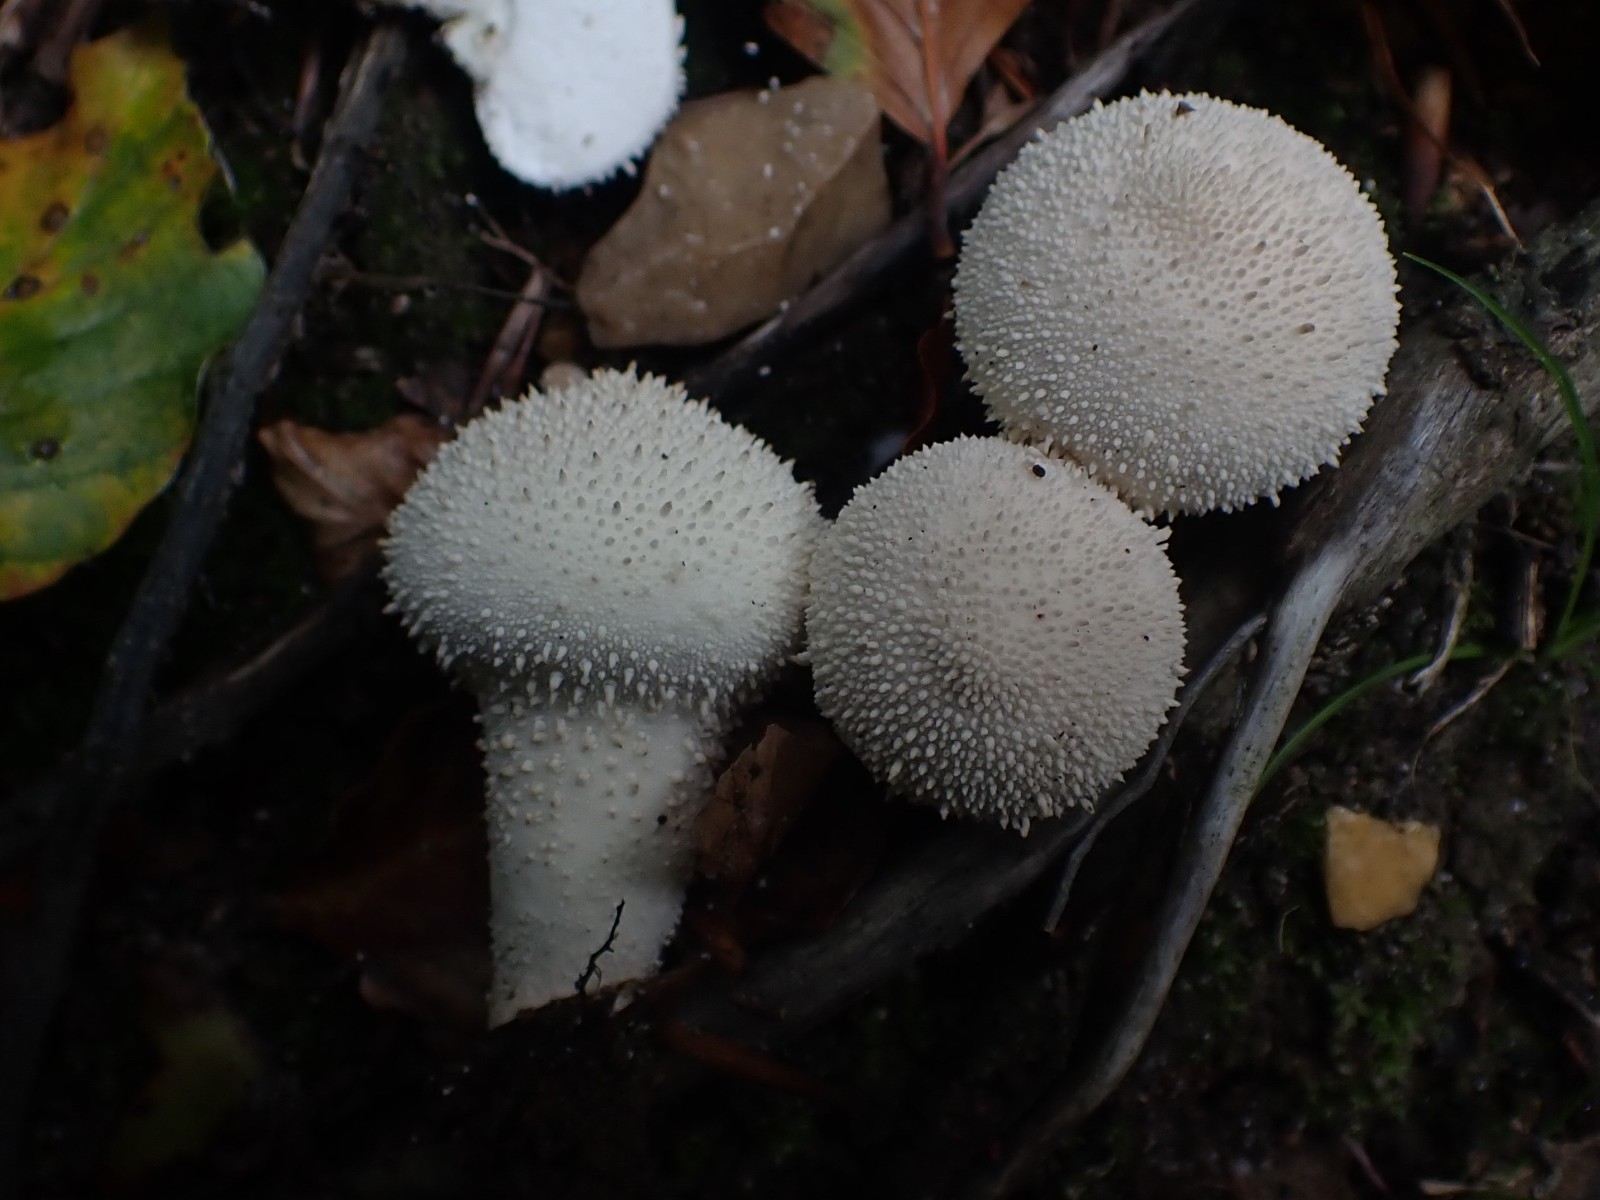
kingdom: Fungi
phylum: Basidiomycota
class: Agaricomycetes
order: Agaricales
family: Lycoperdaceae
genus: Lycoperdon
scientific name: Lycoperdon perlatum
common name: krystal-støvbold
